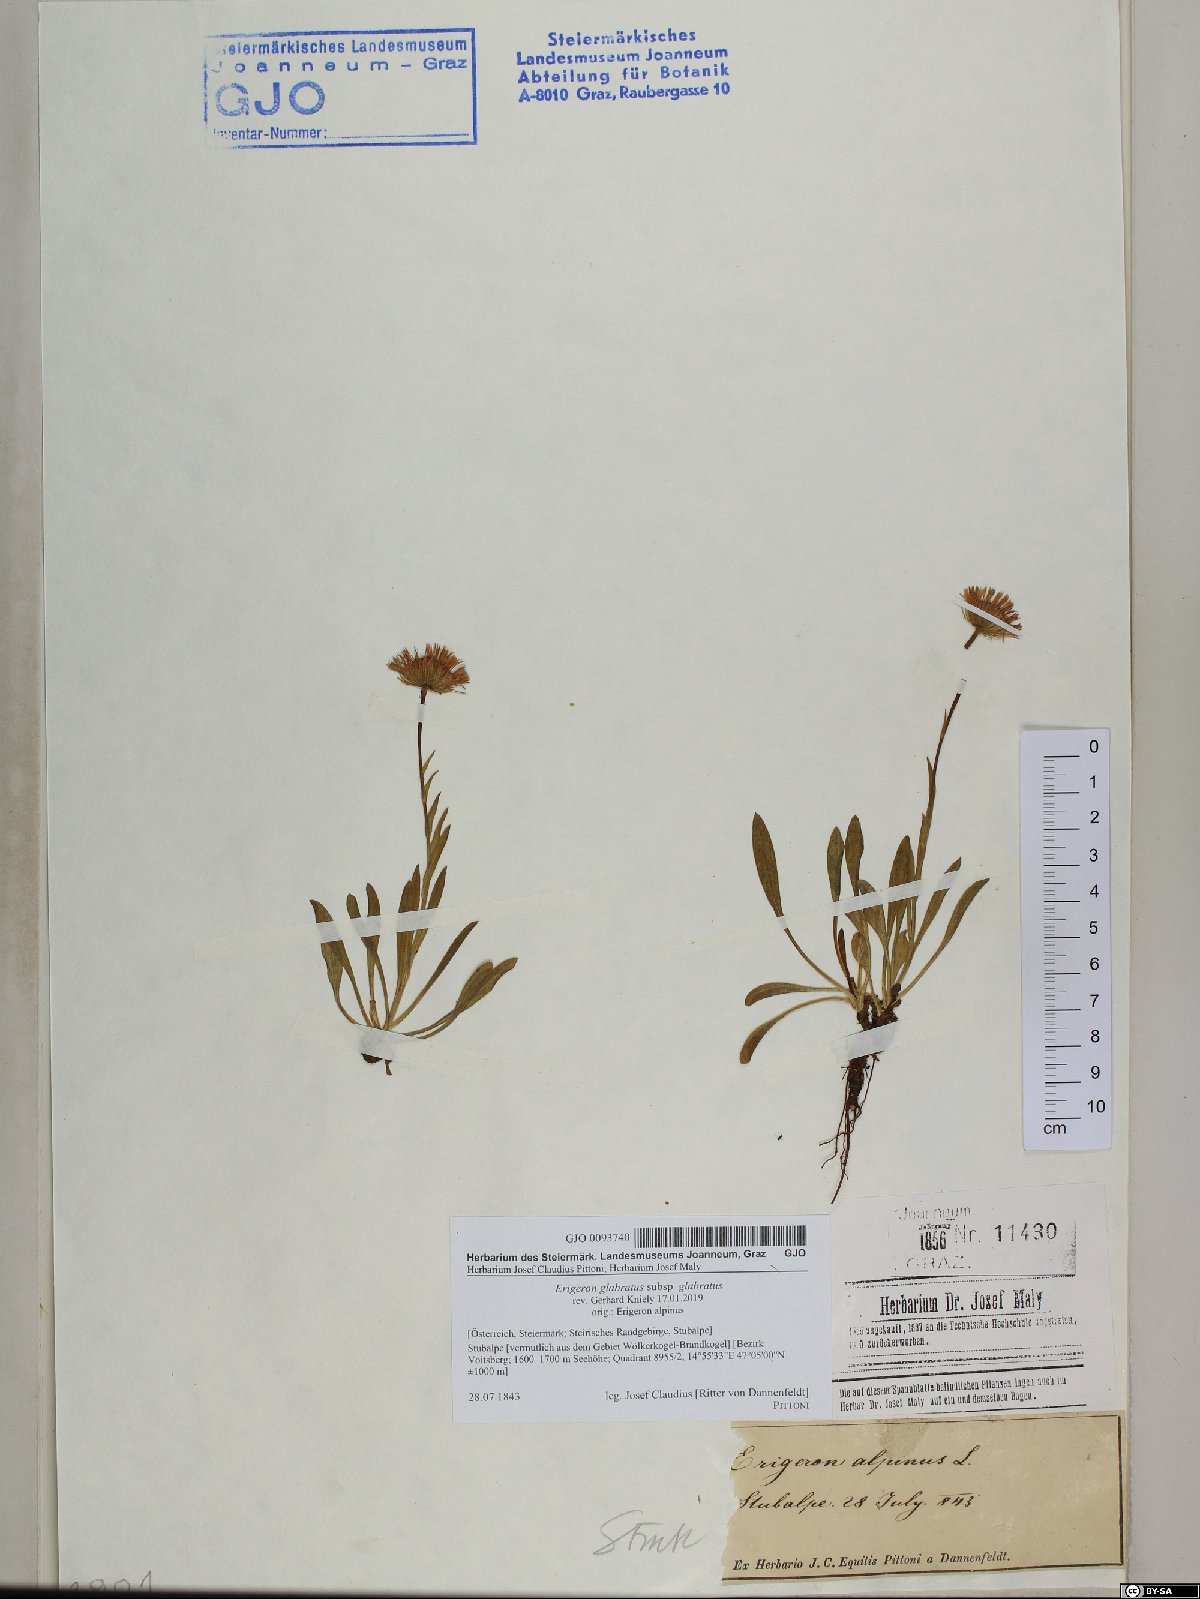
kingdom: Plantae
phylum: Tracheophyta
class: Magnoliopsida
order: Asterales
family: Asteraceae
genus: Erigeron
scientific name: Erigeron glabratus
